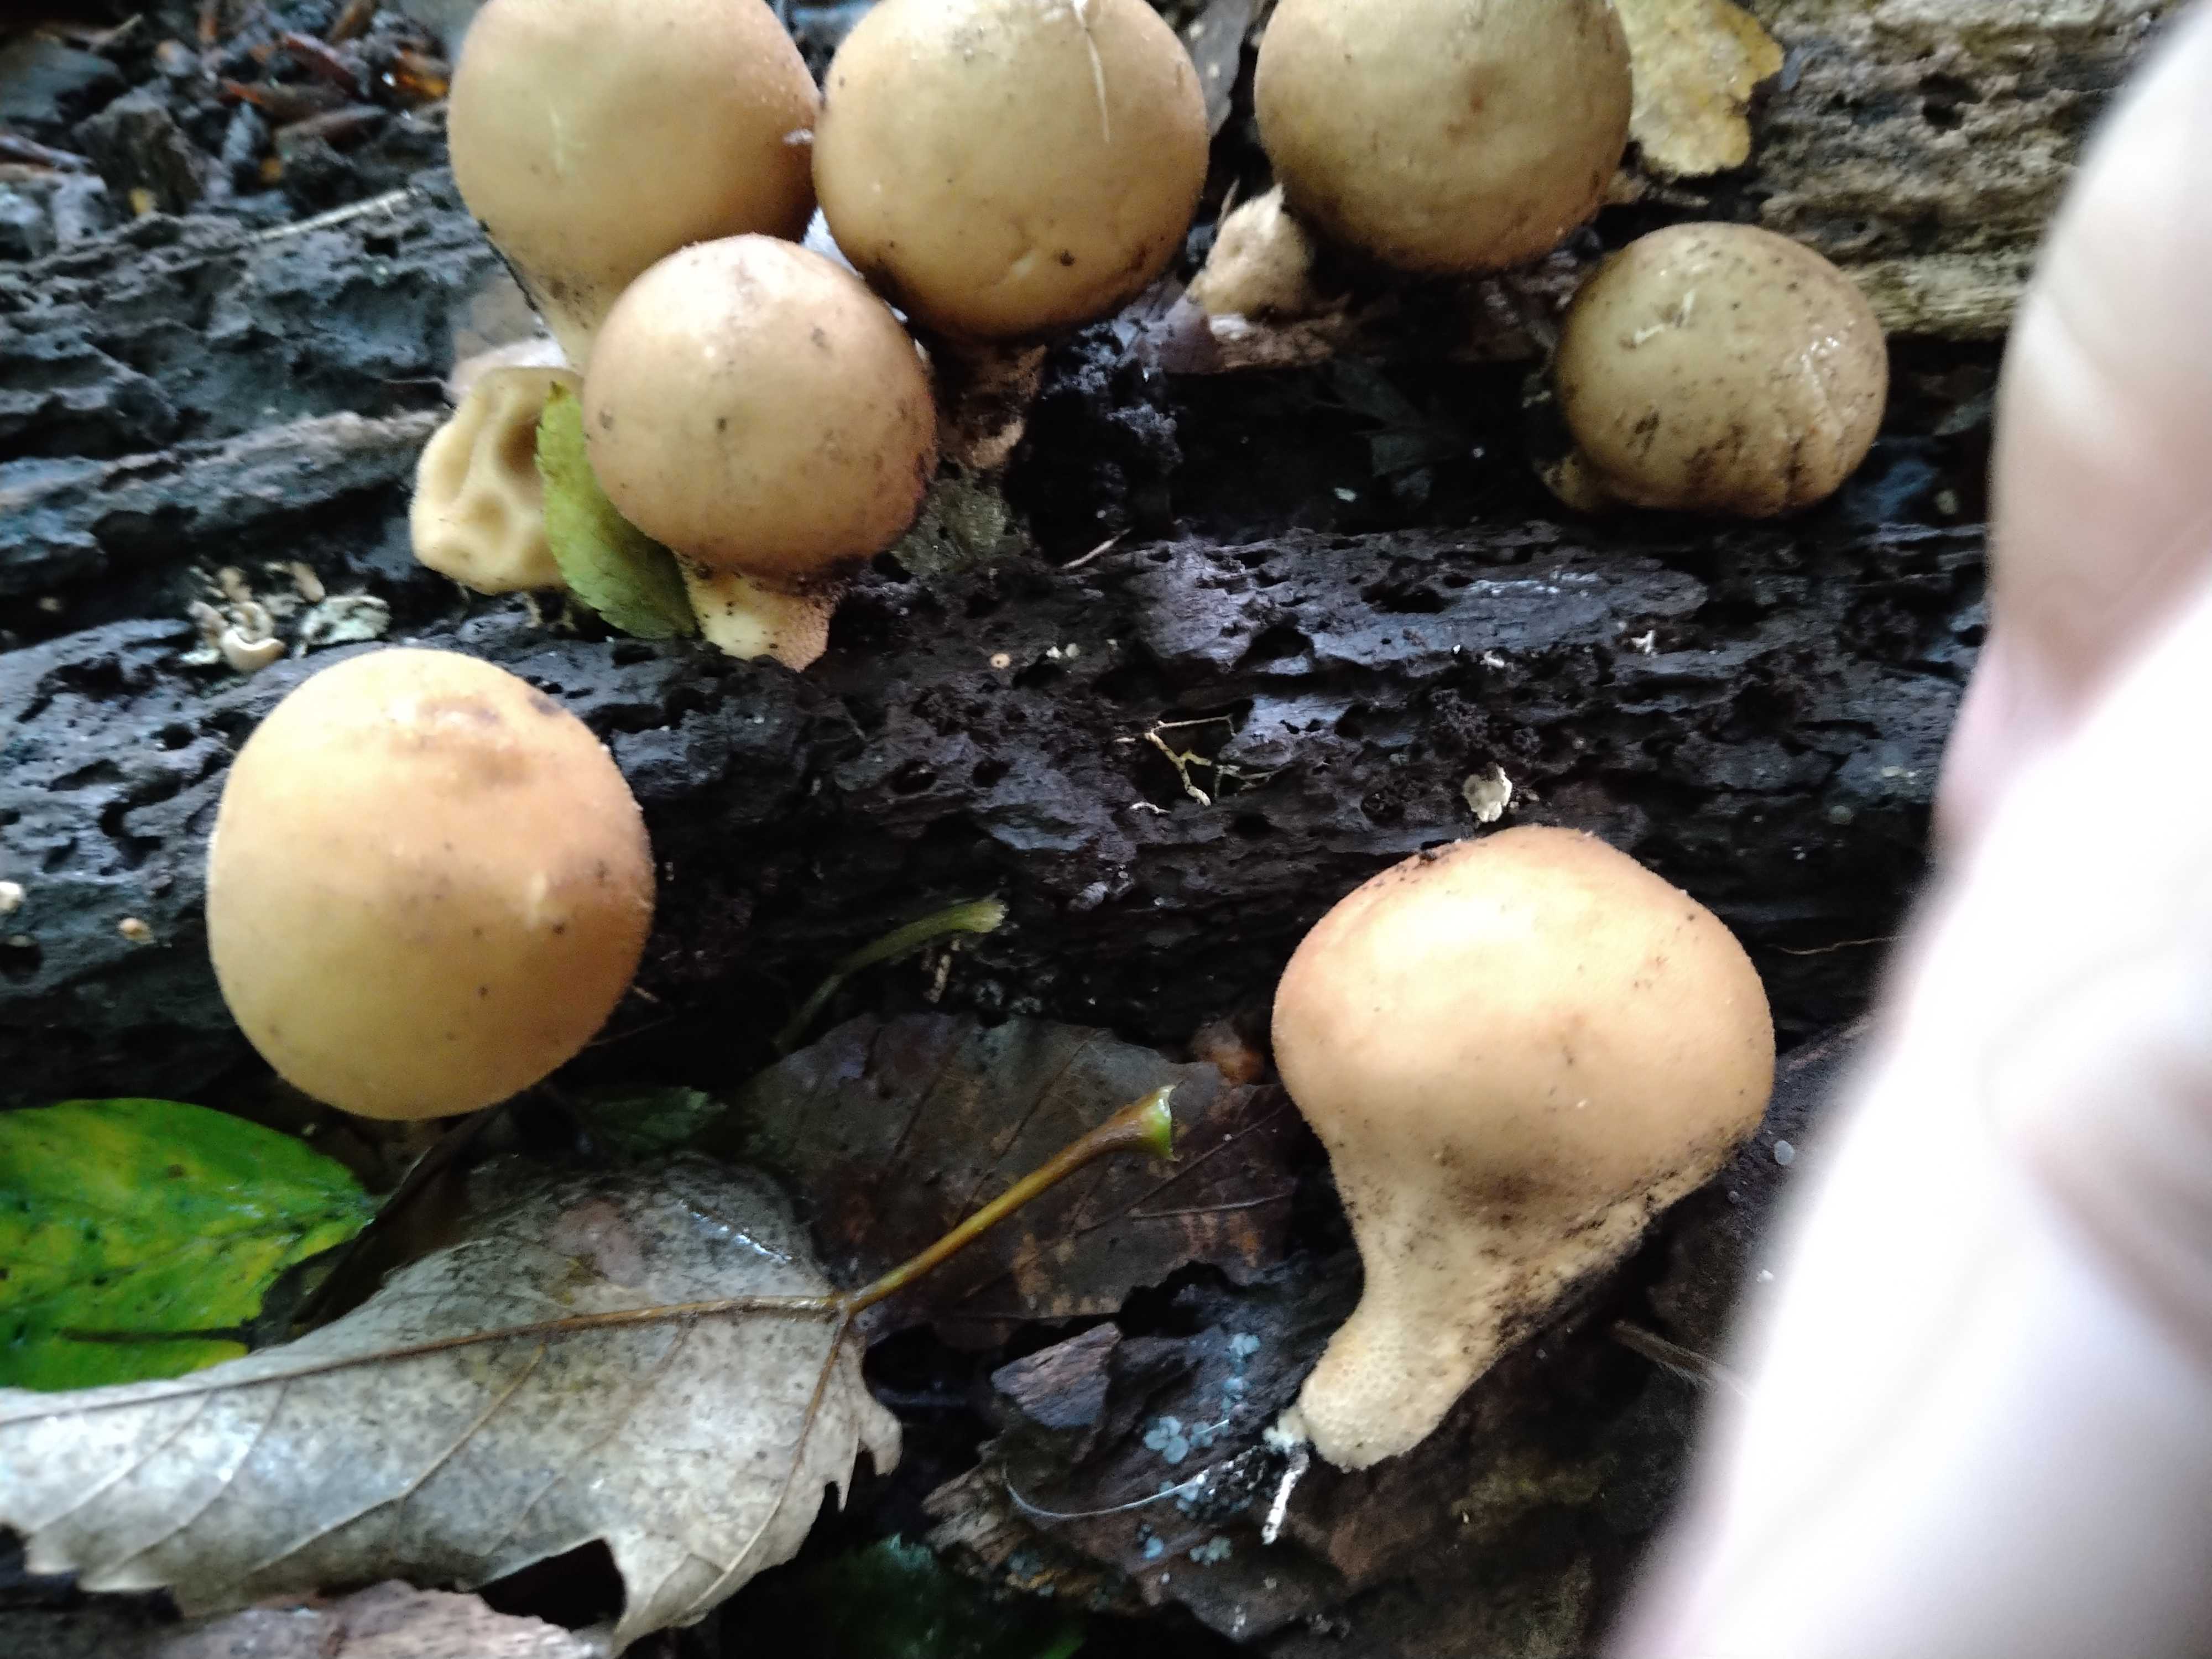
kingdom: Fungi
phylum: Basidiomycota
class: Agaricomycetes
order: Agaricales
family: Lycoperdaceae
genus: Apioperdon
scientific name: Apioperdon pyriforme
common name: pære-støvbold
